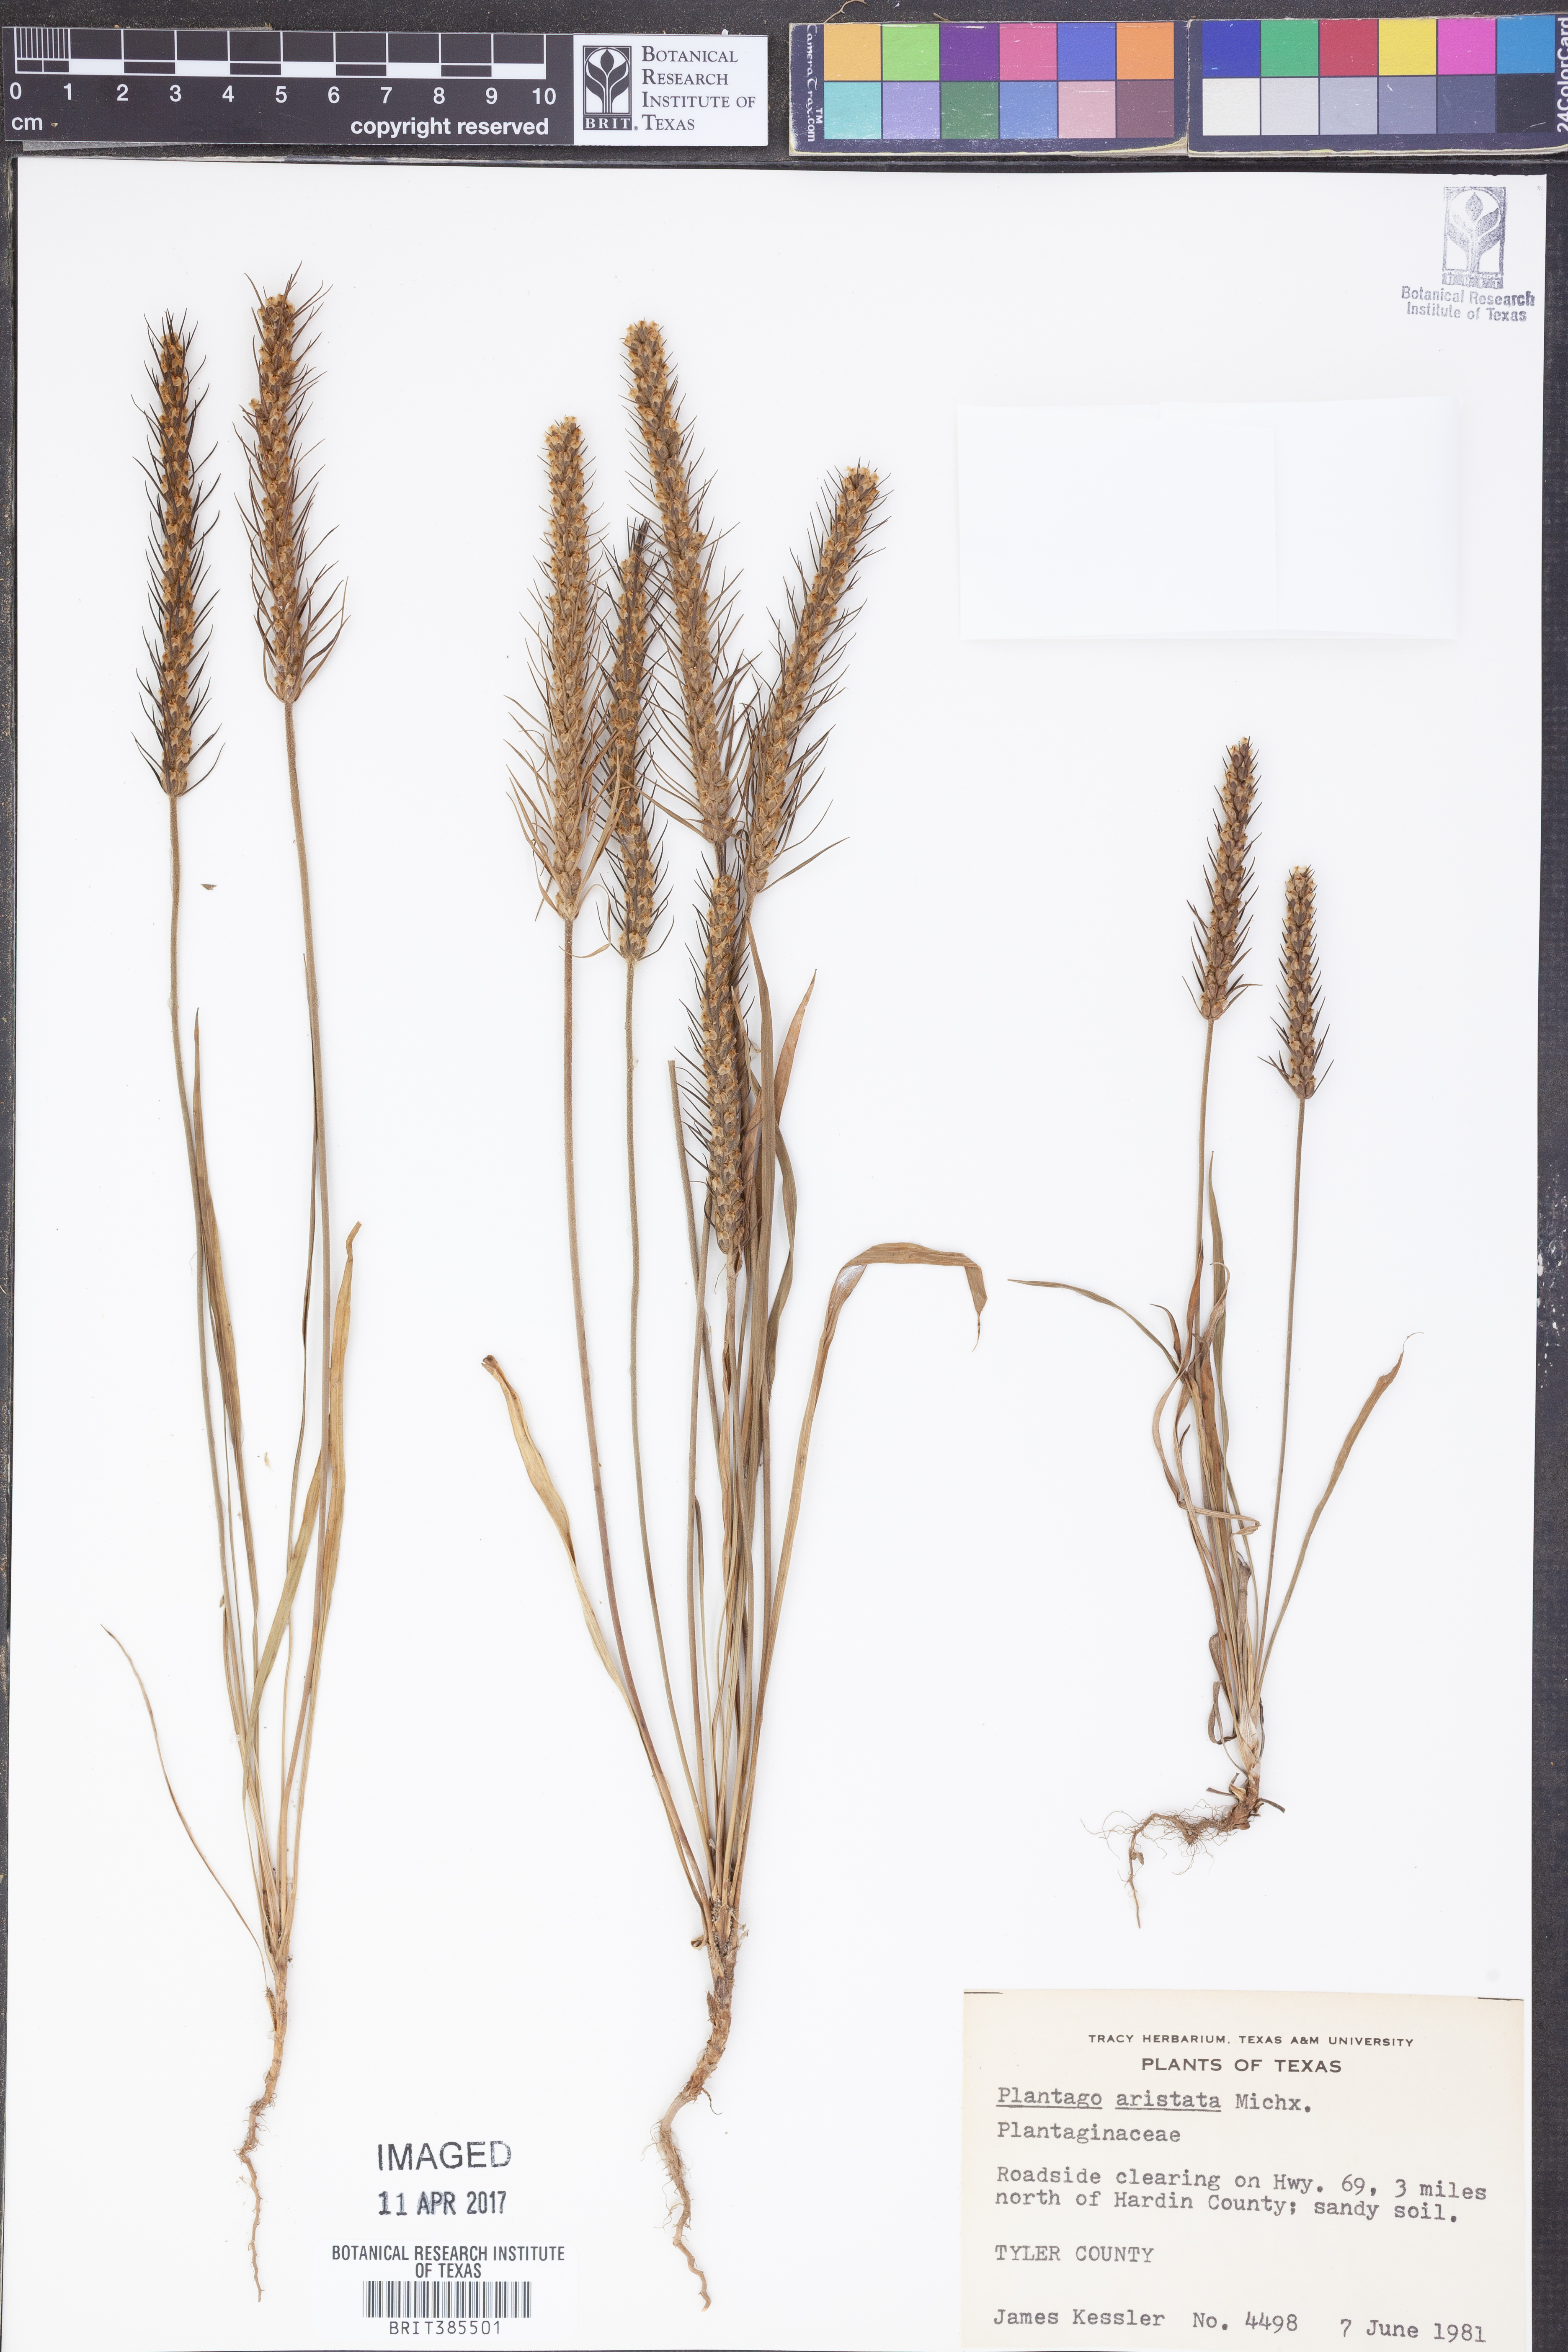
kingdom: Plantae
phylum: Tracheophyta
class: Magnoliopsida
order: Lamiales
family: Plantaginaceae
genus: Plantago
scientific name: Plantago aristata
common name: Bracted plantain
